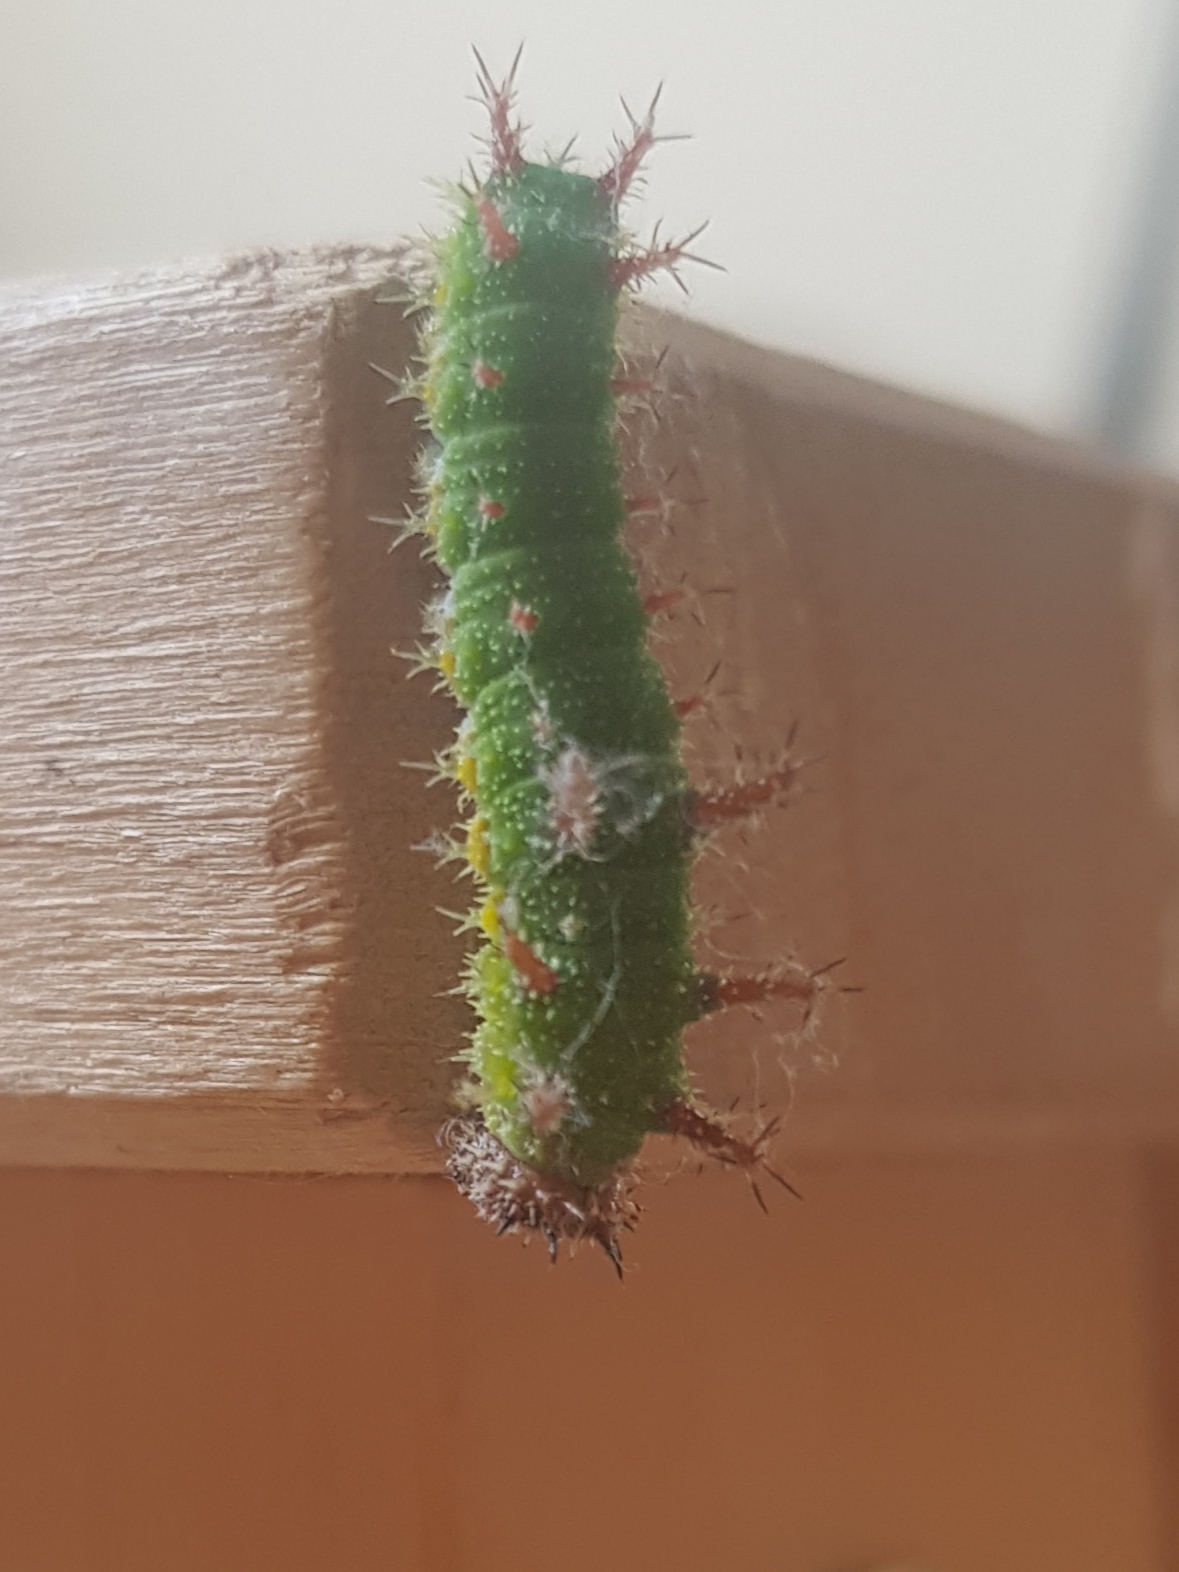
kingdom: Animalia
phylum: Arthropoda
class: Insecta
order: Lepidoptera
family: Nymphalidae
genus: Ladoga
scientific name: Ladoga camilla
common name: Hvid admiral
